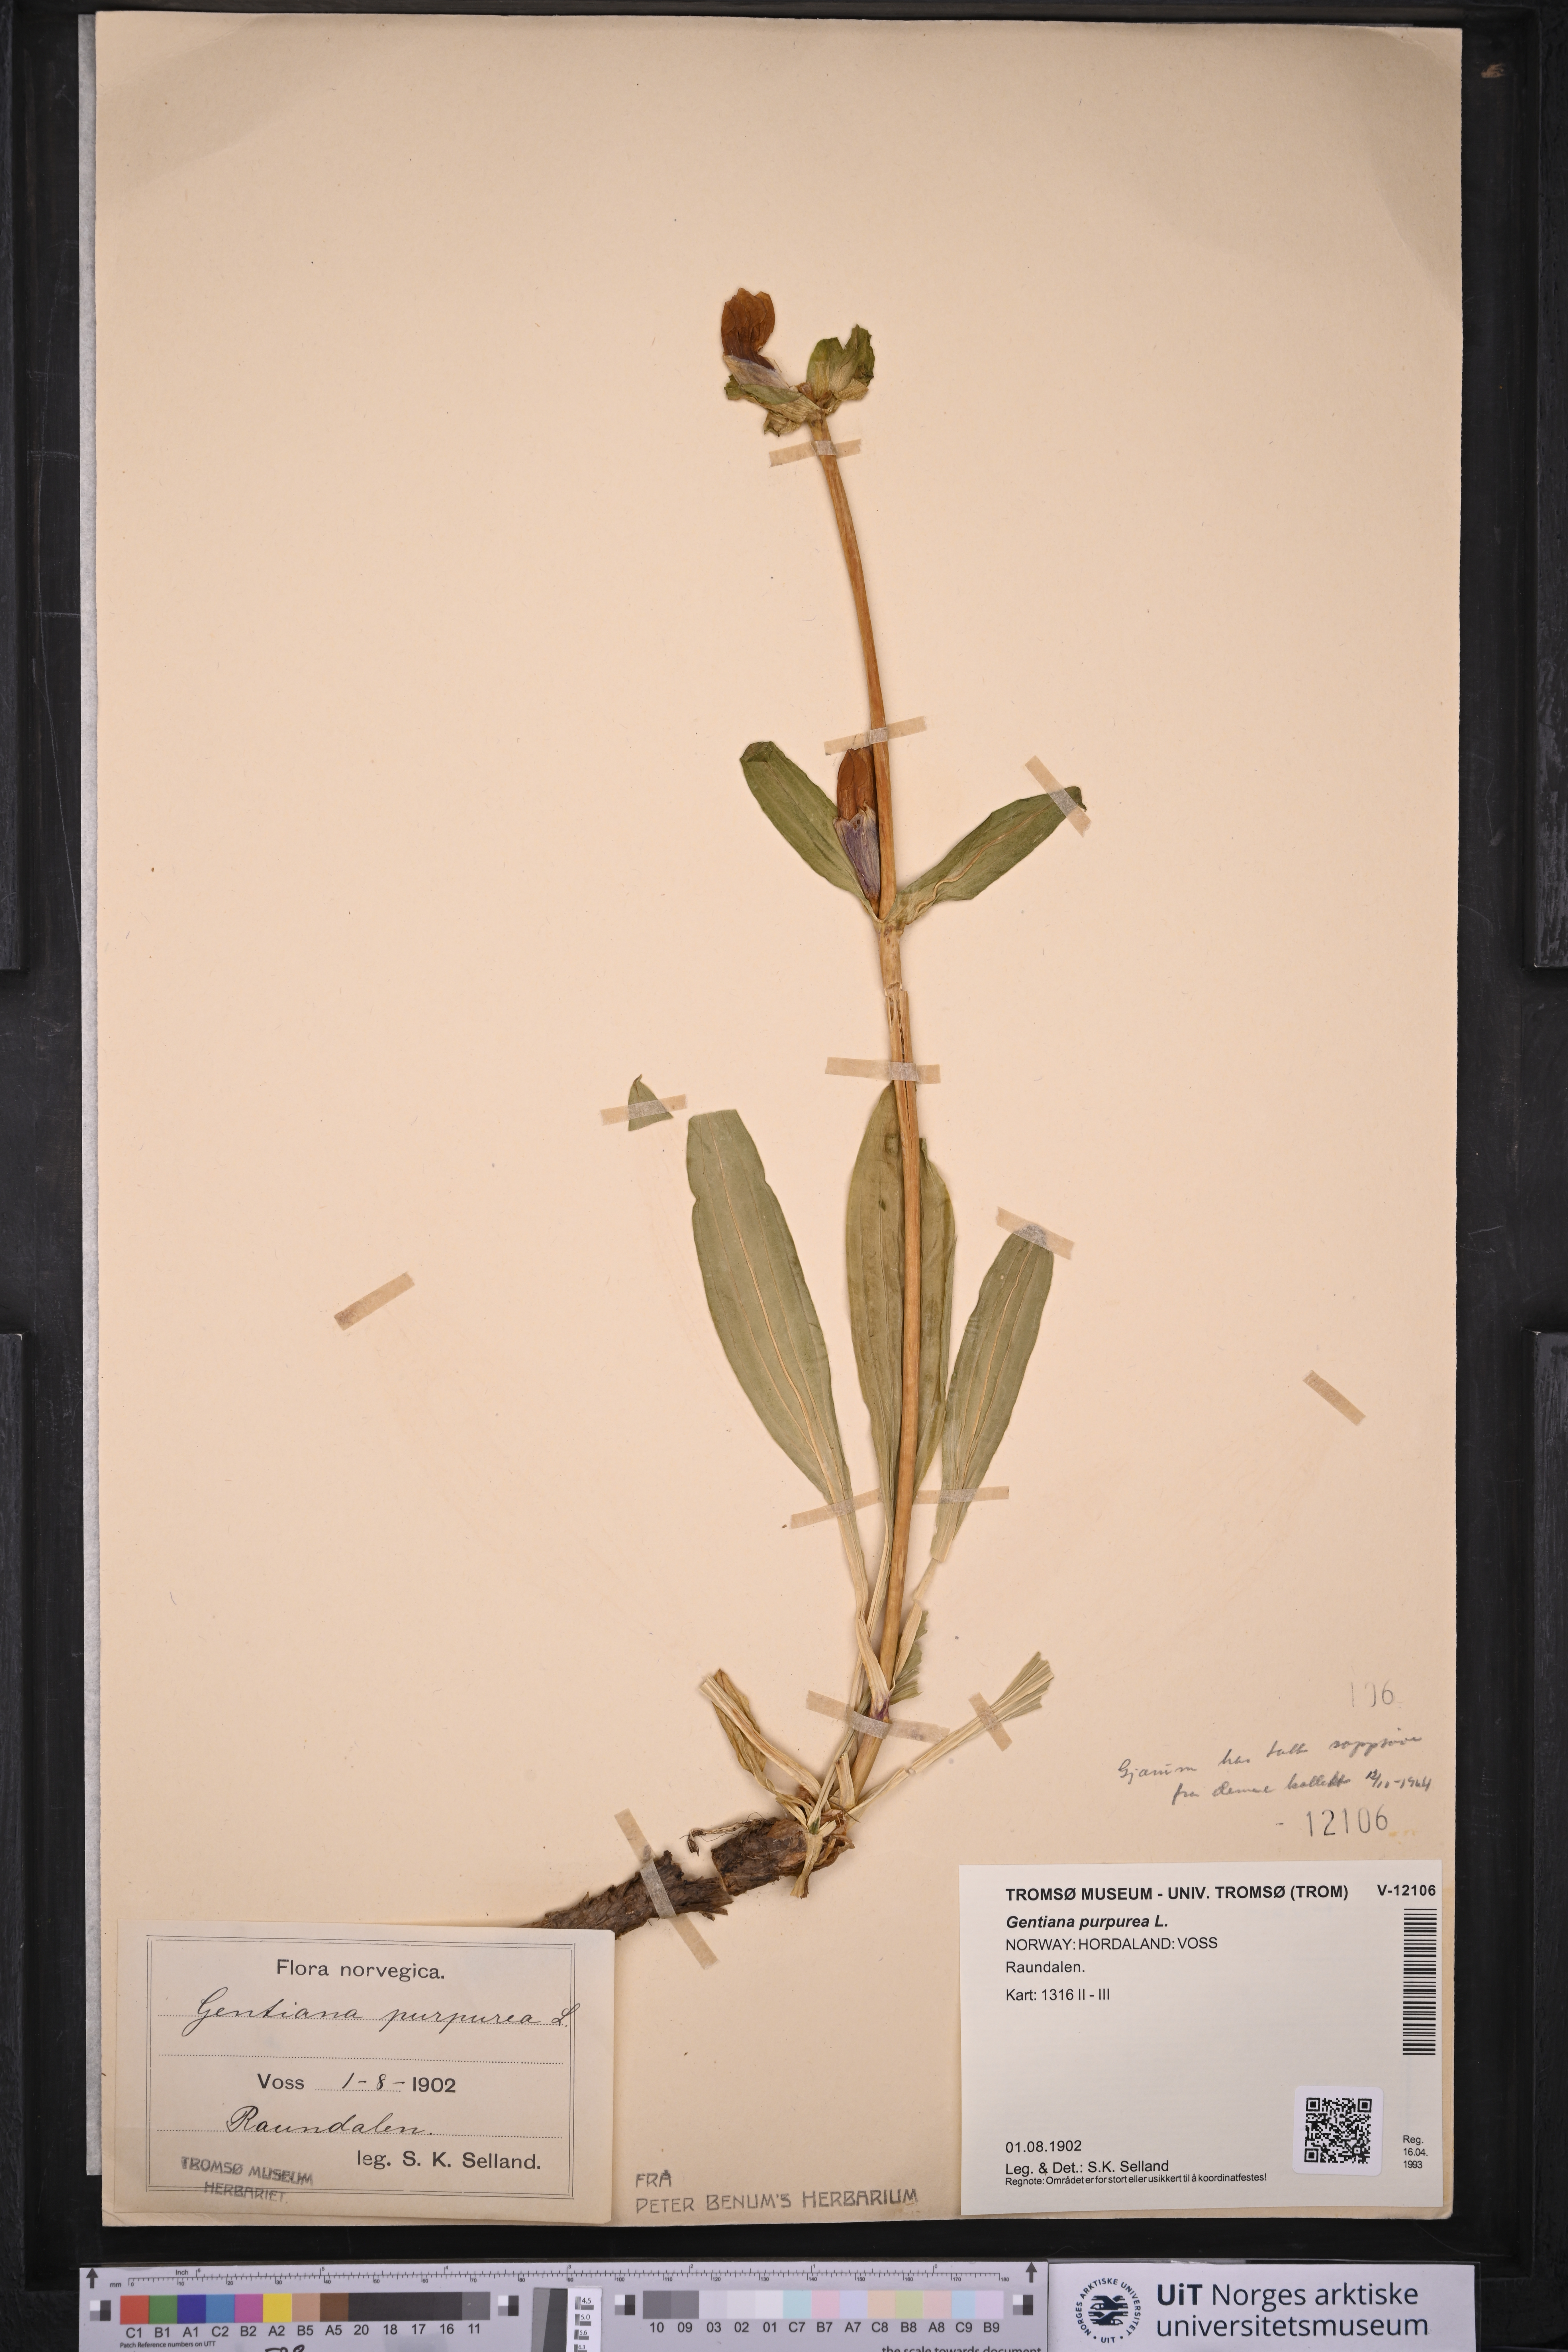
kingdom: Plantae
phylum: Tracheophyta
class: Magnoliopsida
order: Gentianales
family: Gentianaceae
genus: Gentiana
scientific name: Gentiana purpurea
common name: Purple gentian
